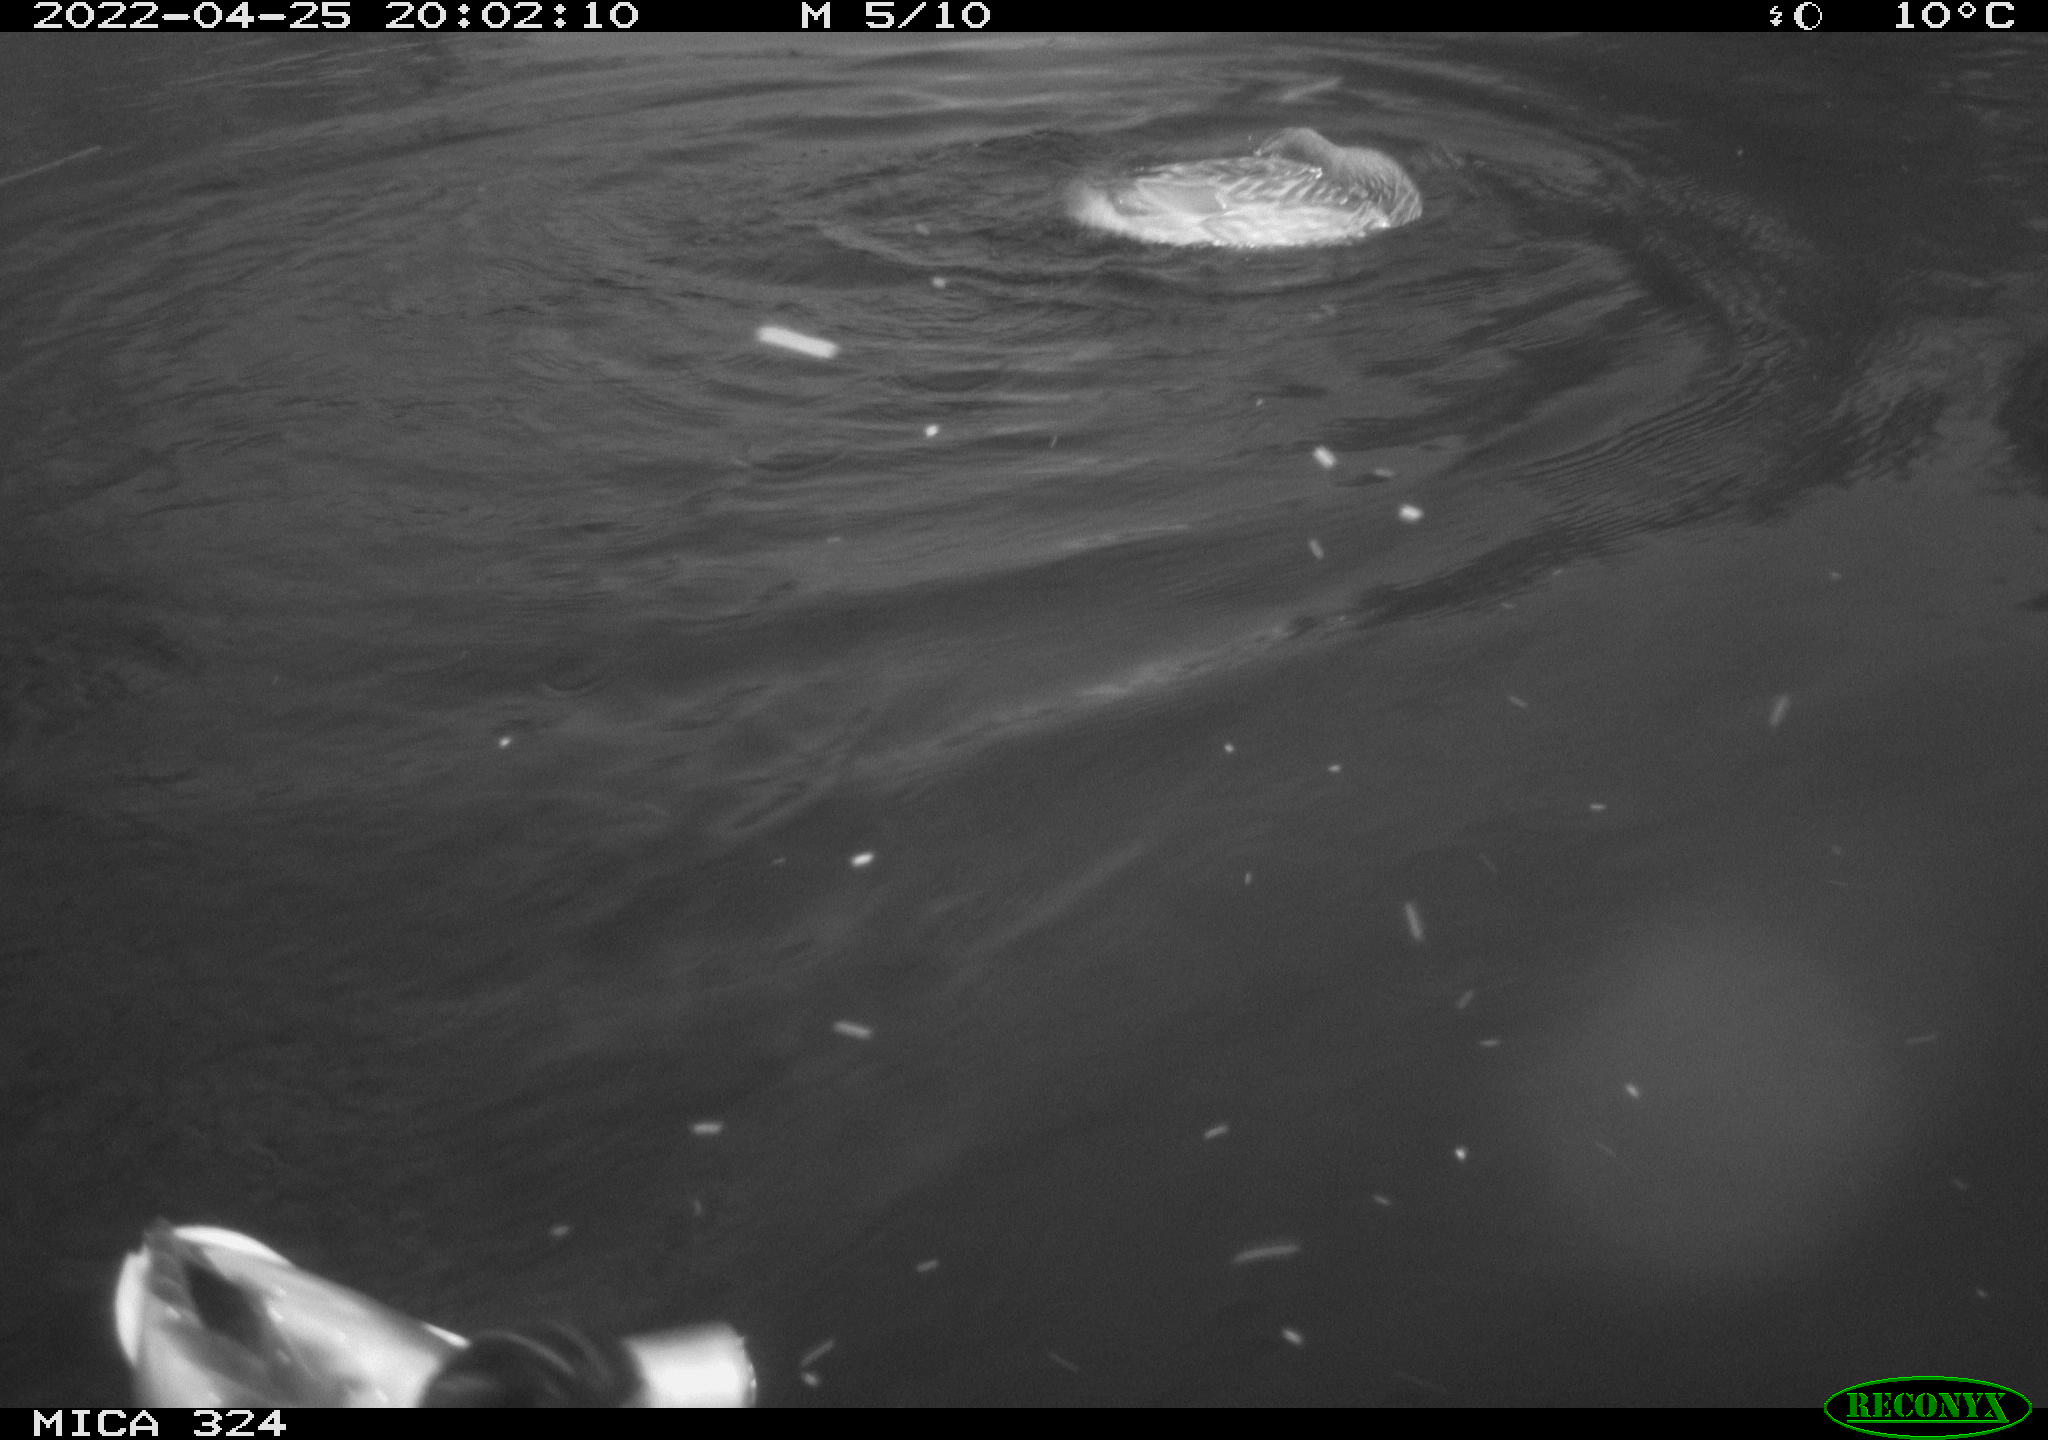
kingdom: Animalia
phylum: Chordata
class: Aves
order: Anseriformes
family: Anatidae
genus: Anas
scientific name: Anas platyrhynchos
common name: Mallard
